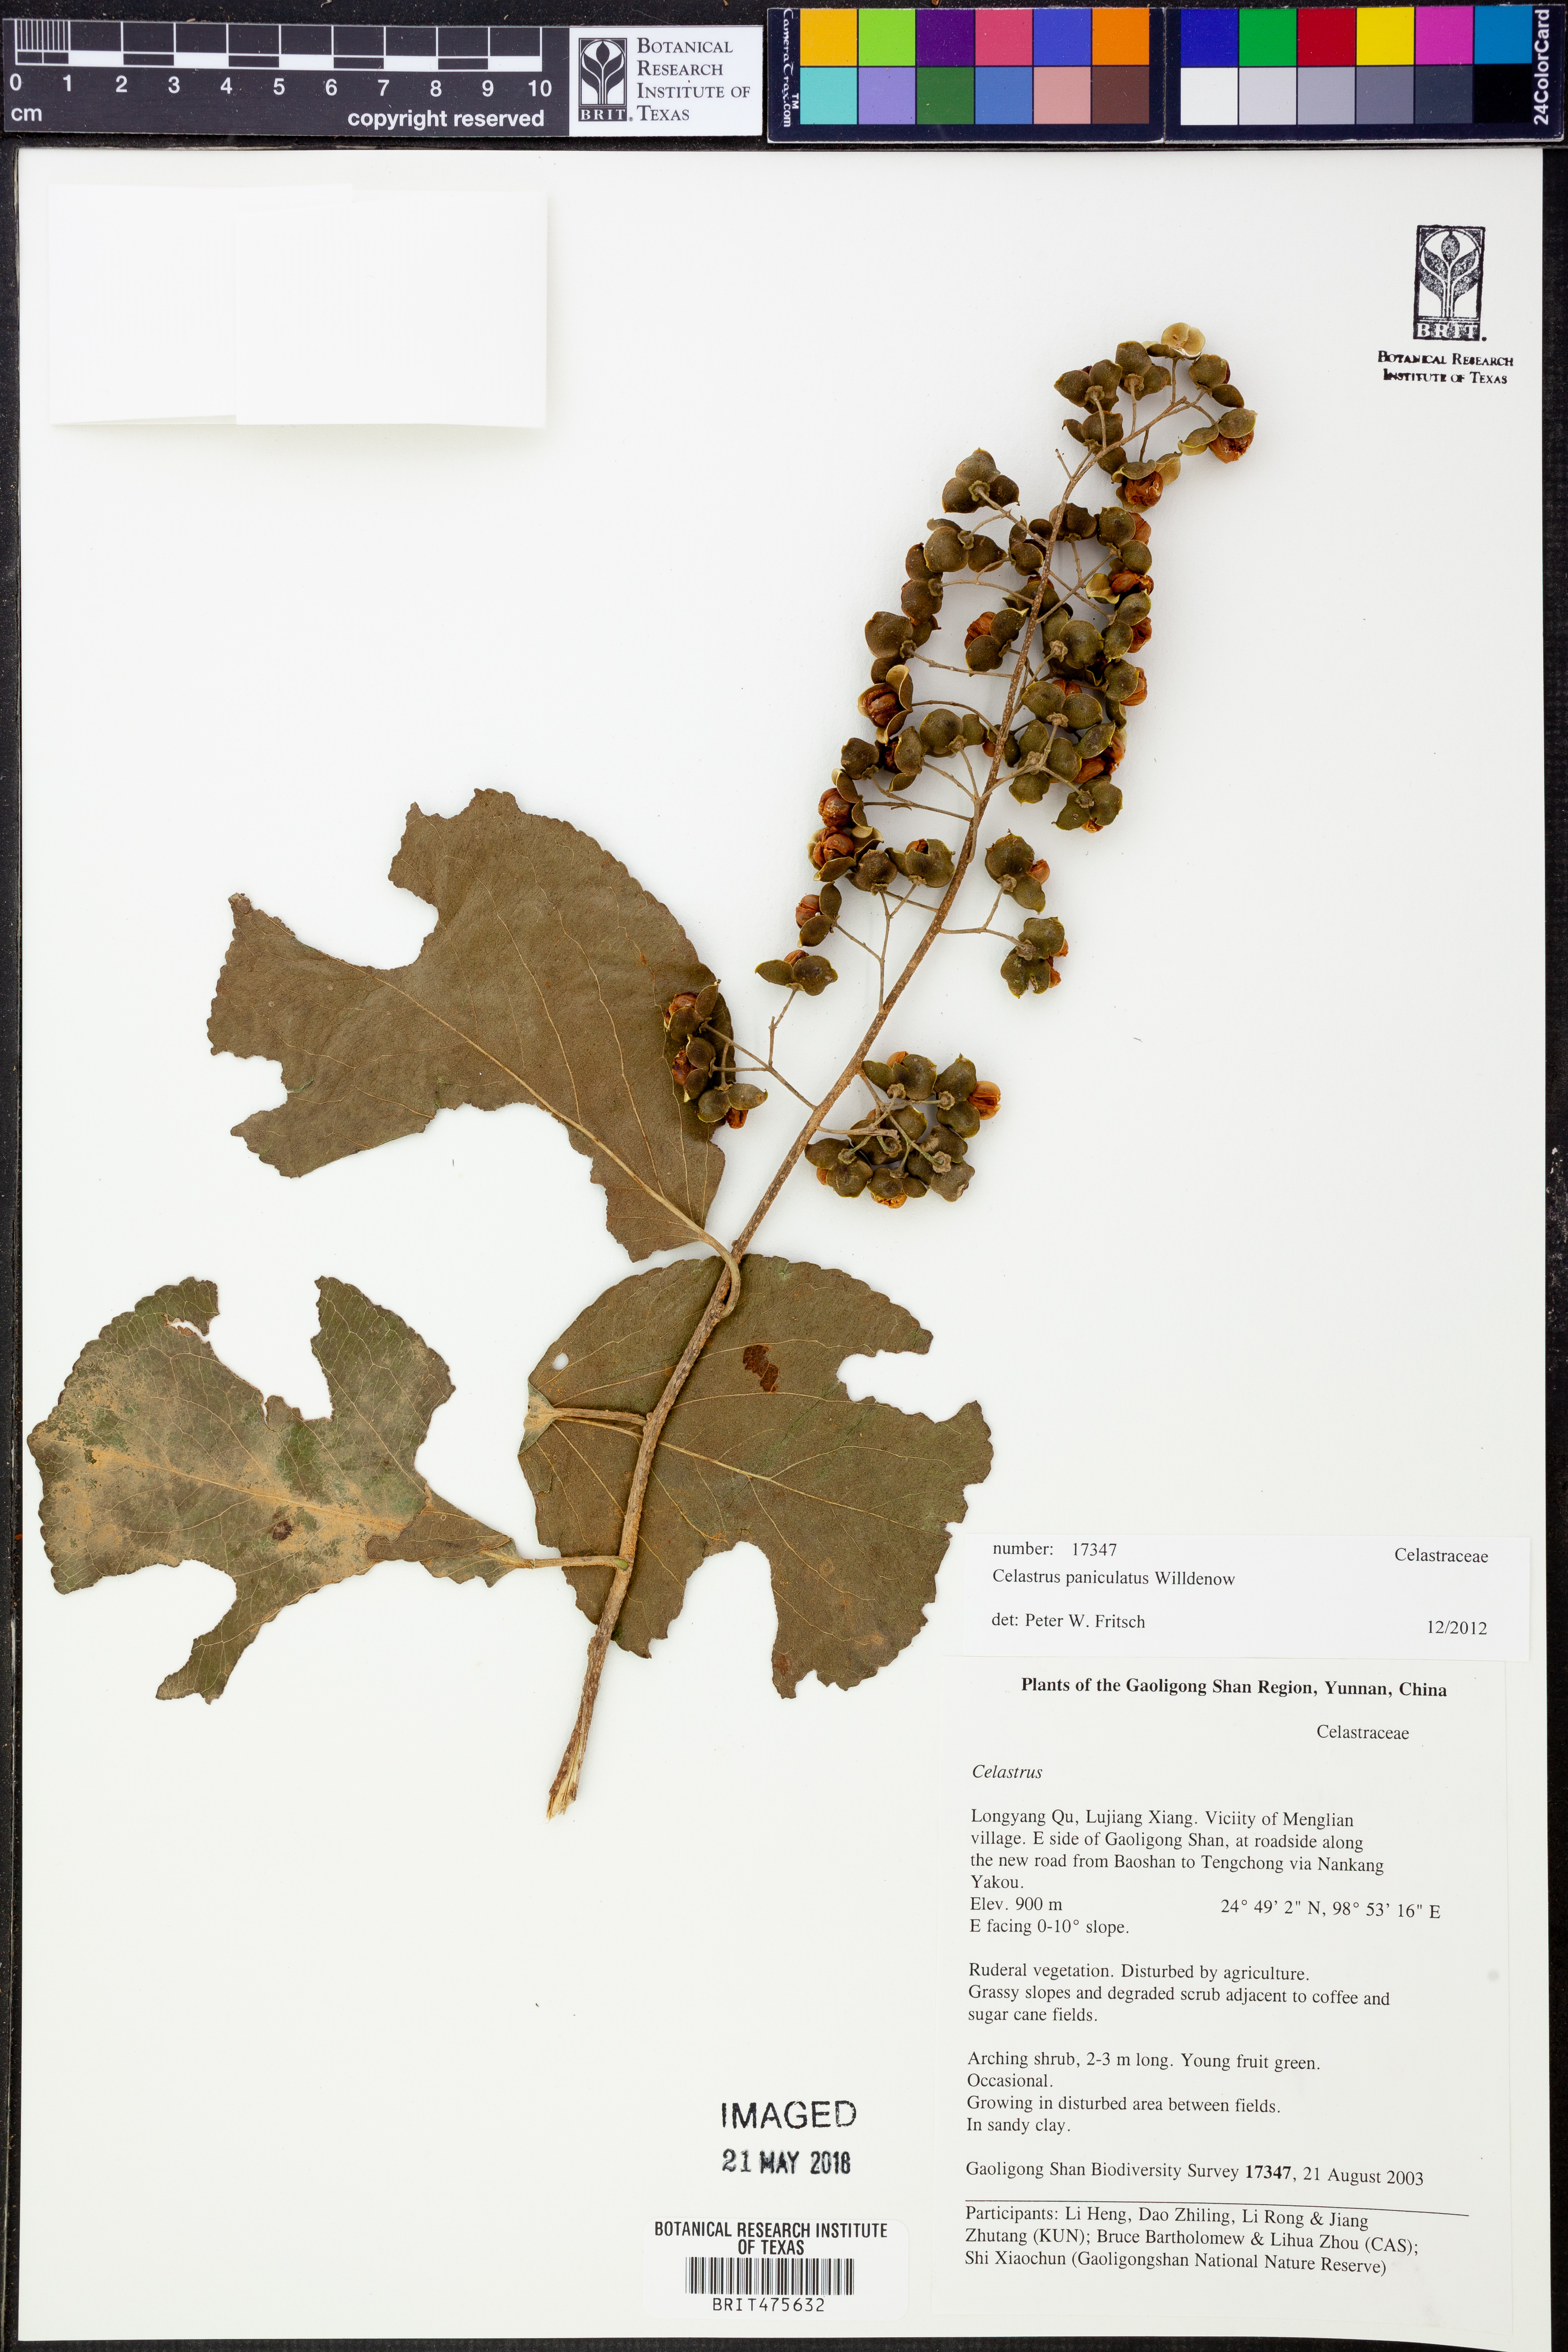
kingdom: Plantae
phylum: Tracheophyta
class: Magnoliopsida
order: Celastrales
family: Celastraceae
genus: Celastrus
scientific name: Celastrus paniculatus
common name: Oriental bittersweet; staff vine
